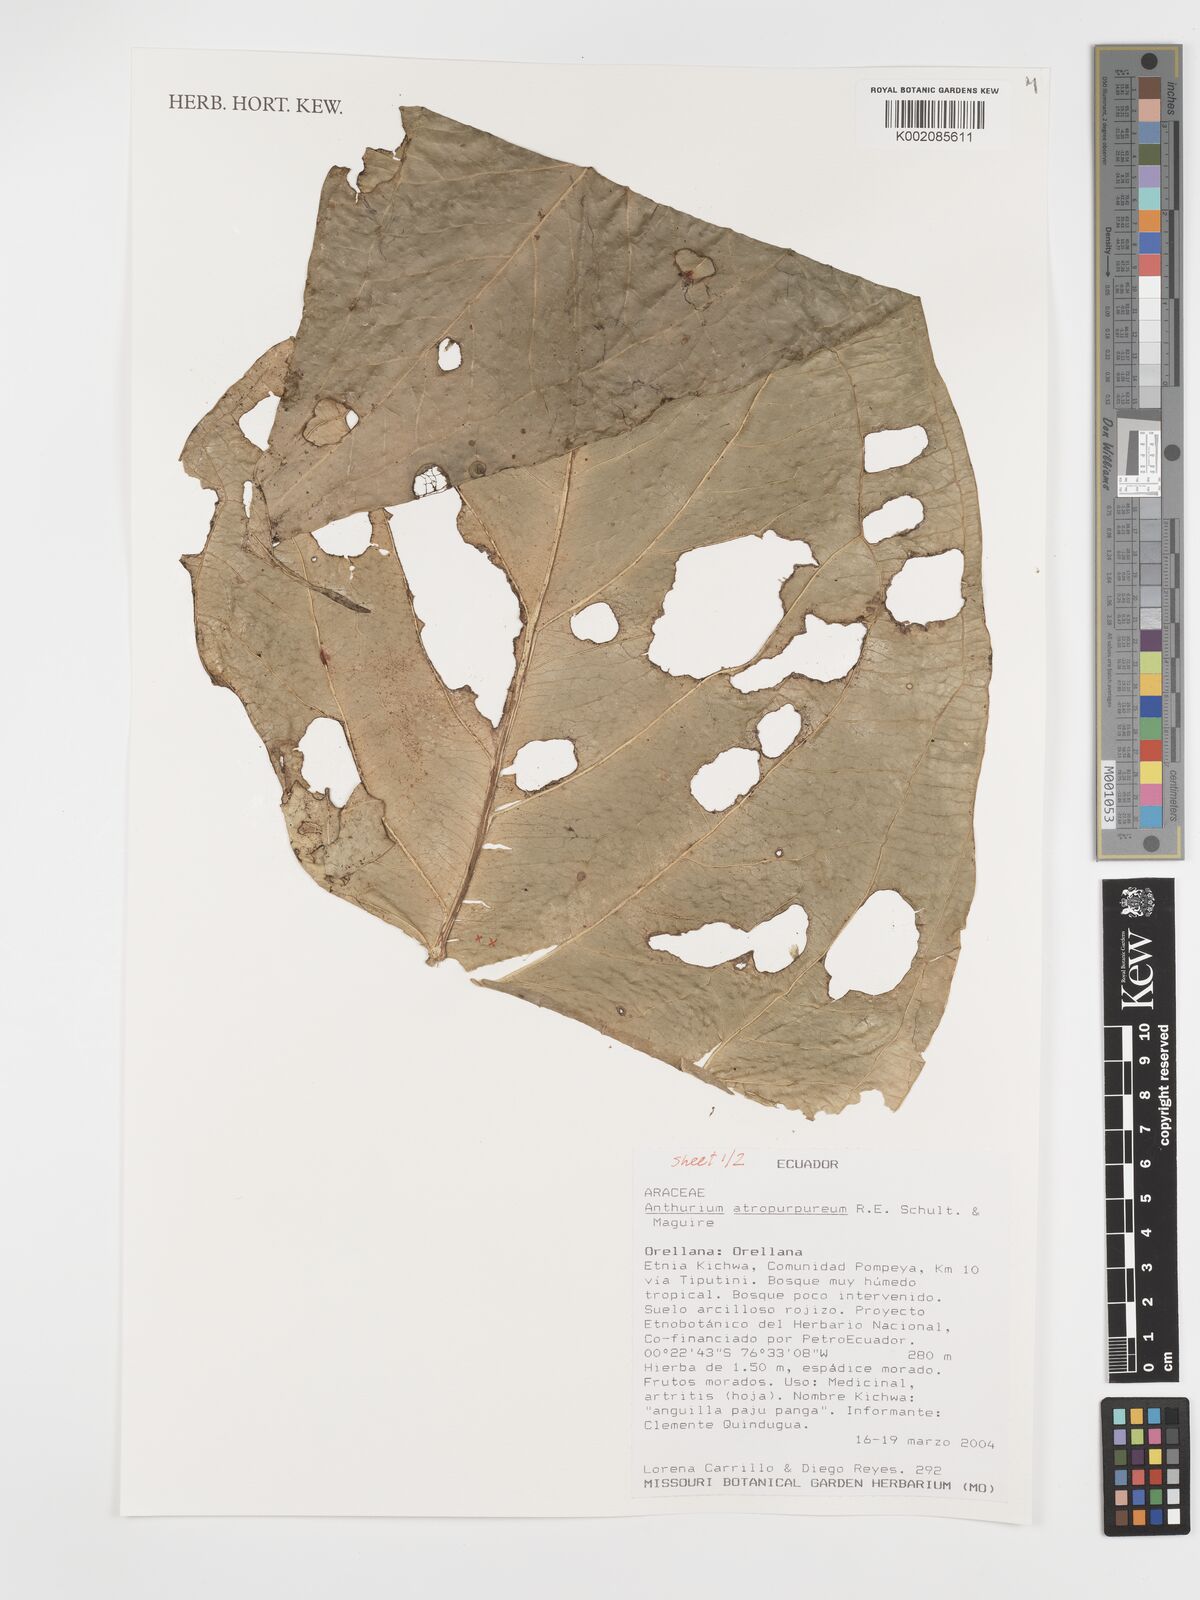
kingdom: Plantae
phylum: Tracheophyta
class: Liliopsida
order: Alismatales
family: Araceae
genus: Anthurium
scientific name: Anthurium atropurpureum
